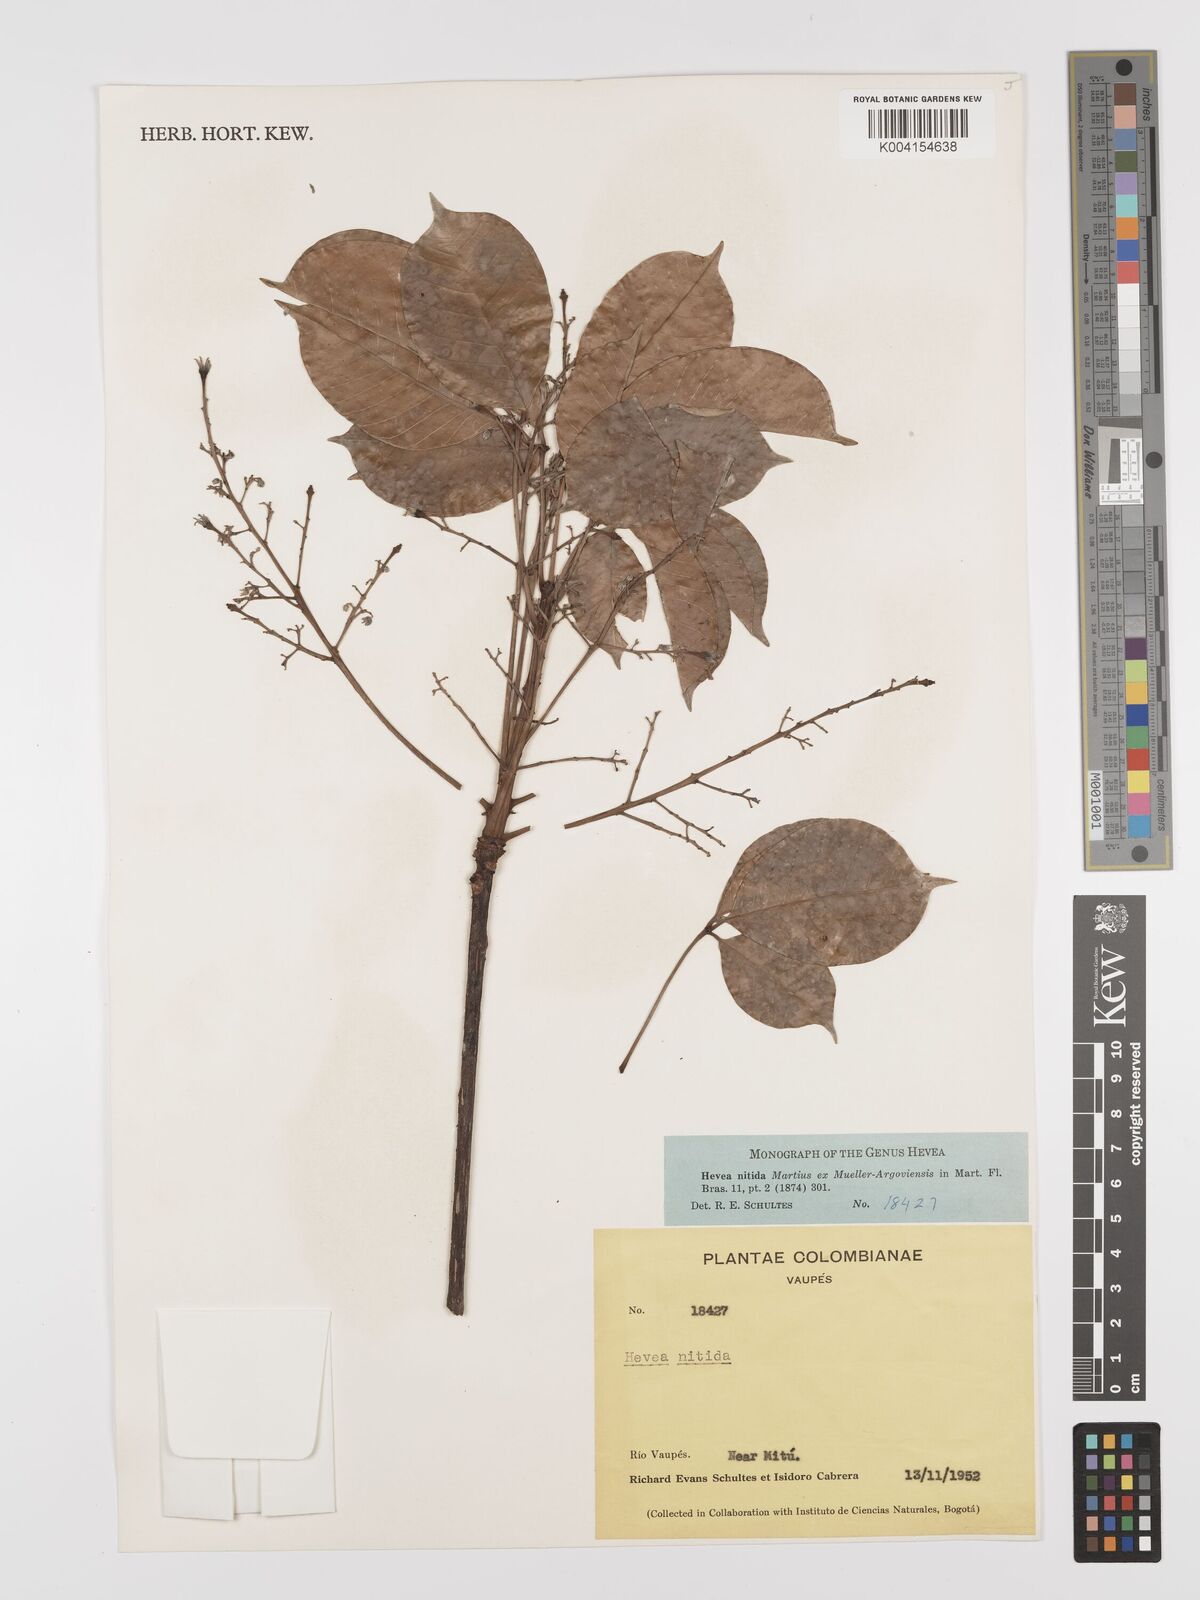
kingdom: Plantae
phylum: Tracheophyta
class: Magnoliopsida
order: Malpighiales
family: Euphorbiaceae
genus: Hevea
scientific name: Hevea nitida
